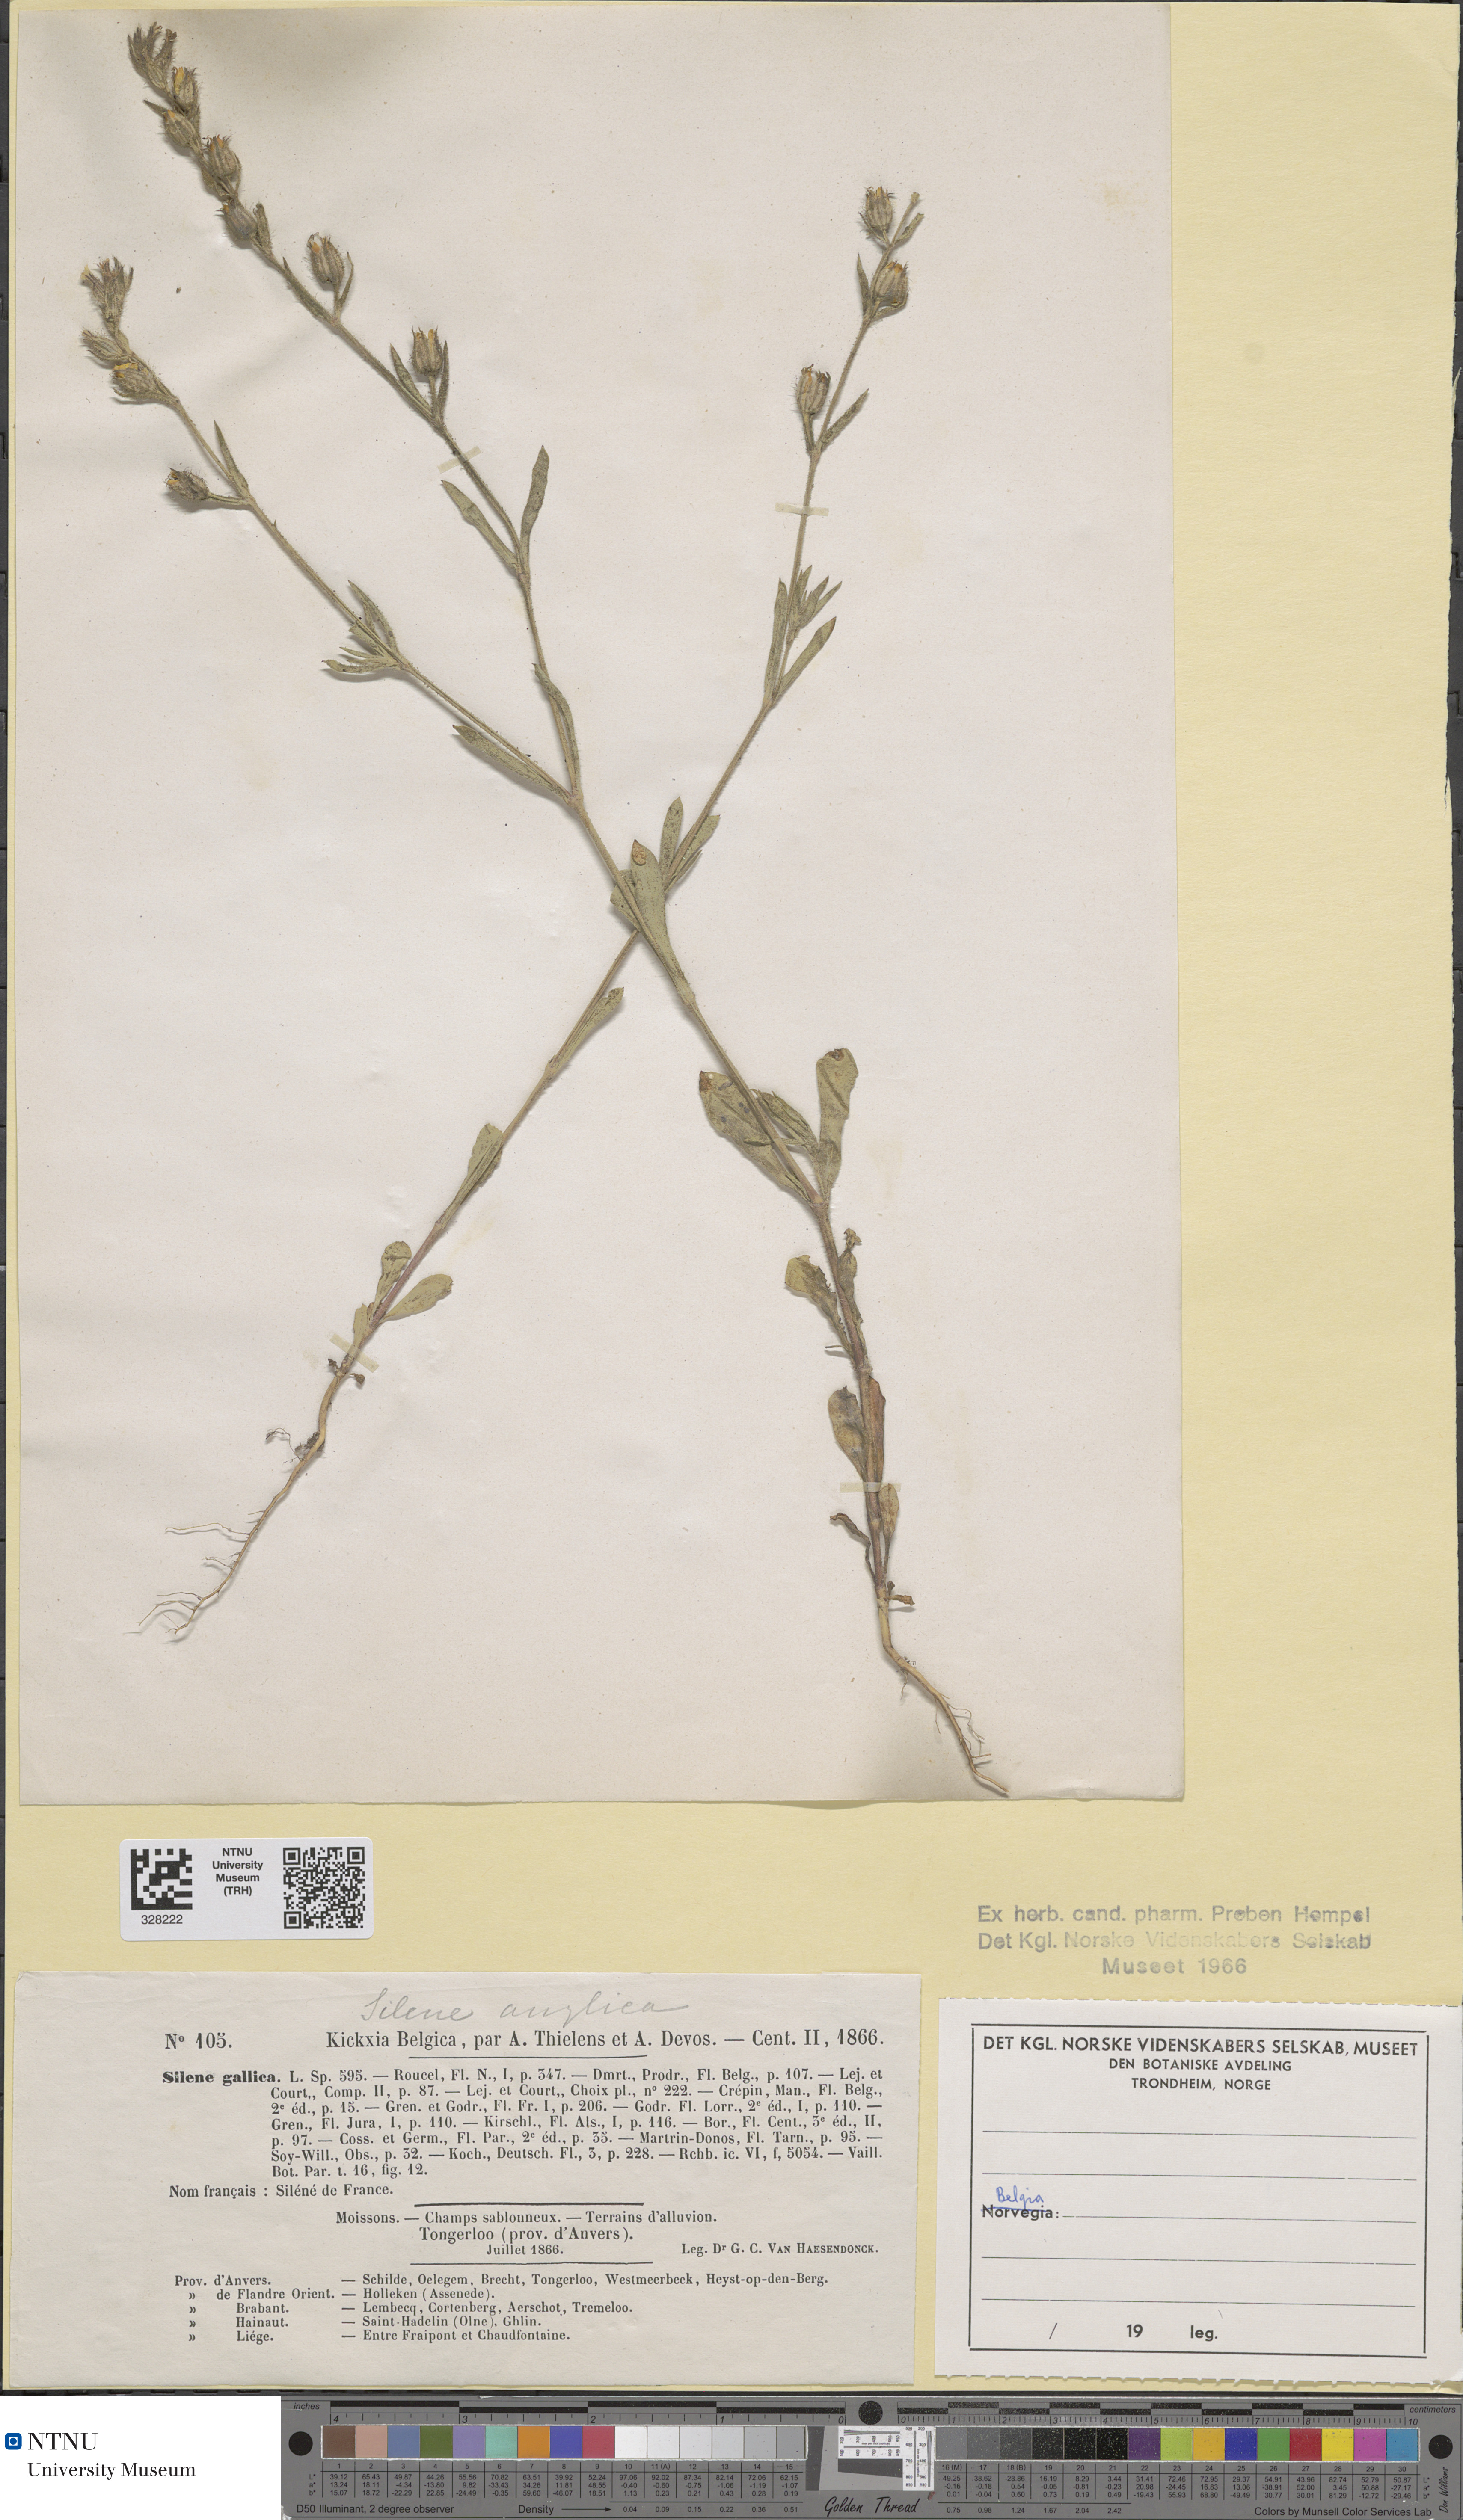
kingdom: Plantae
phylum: Tracheophyta
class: Magnoliopsida
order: Caryophyllales
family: Caryophyllaceae
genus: Silene
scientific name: Silene gallica
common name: Small-flowered catchfly
